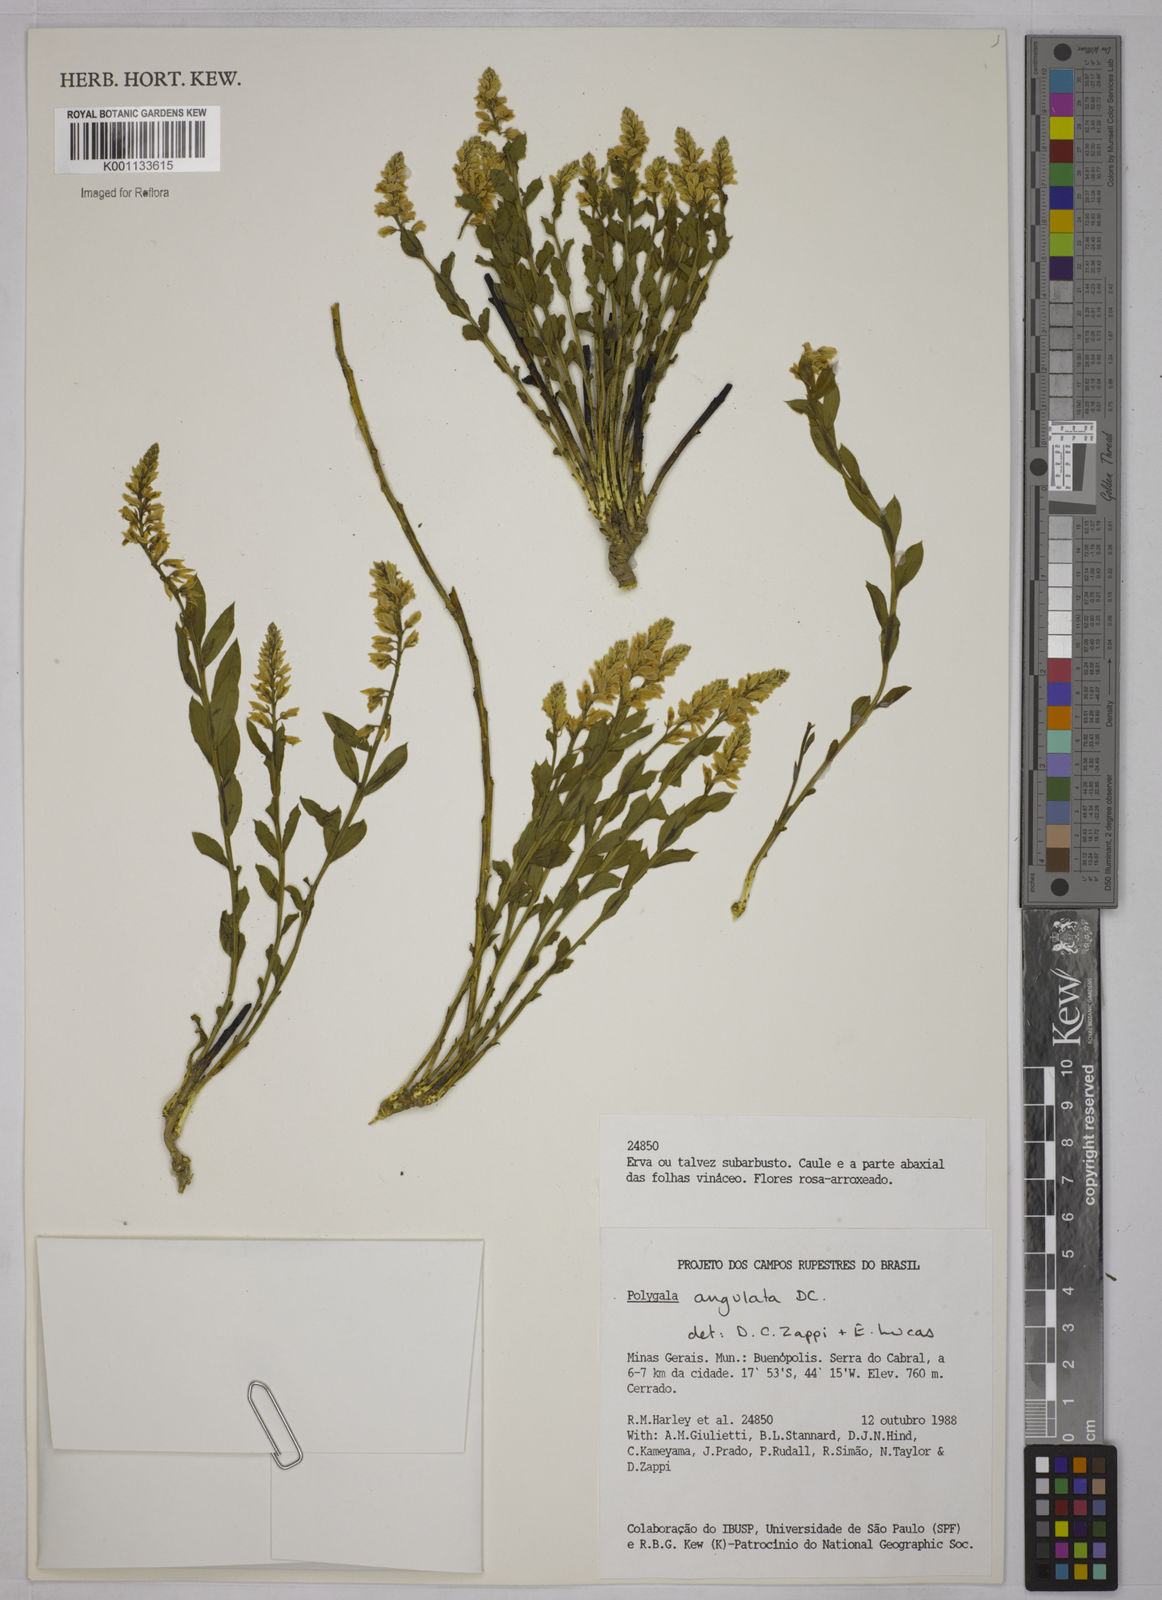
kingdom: Plantae
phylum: Tracheophyta
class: Magnoliopsida
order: Fabales
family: Polygalaceae
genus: Polygala
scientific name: Polygala poaya
